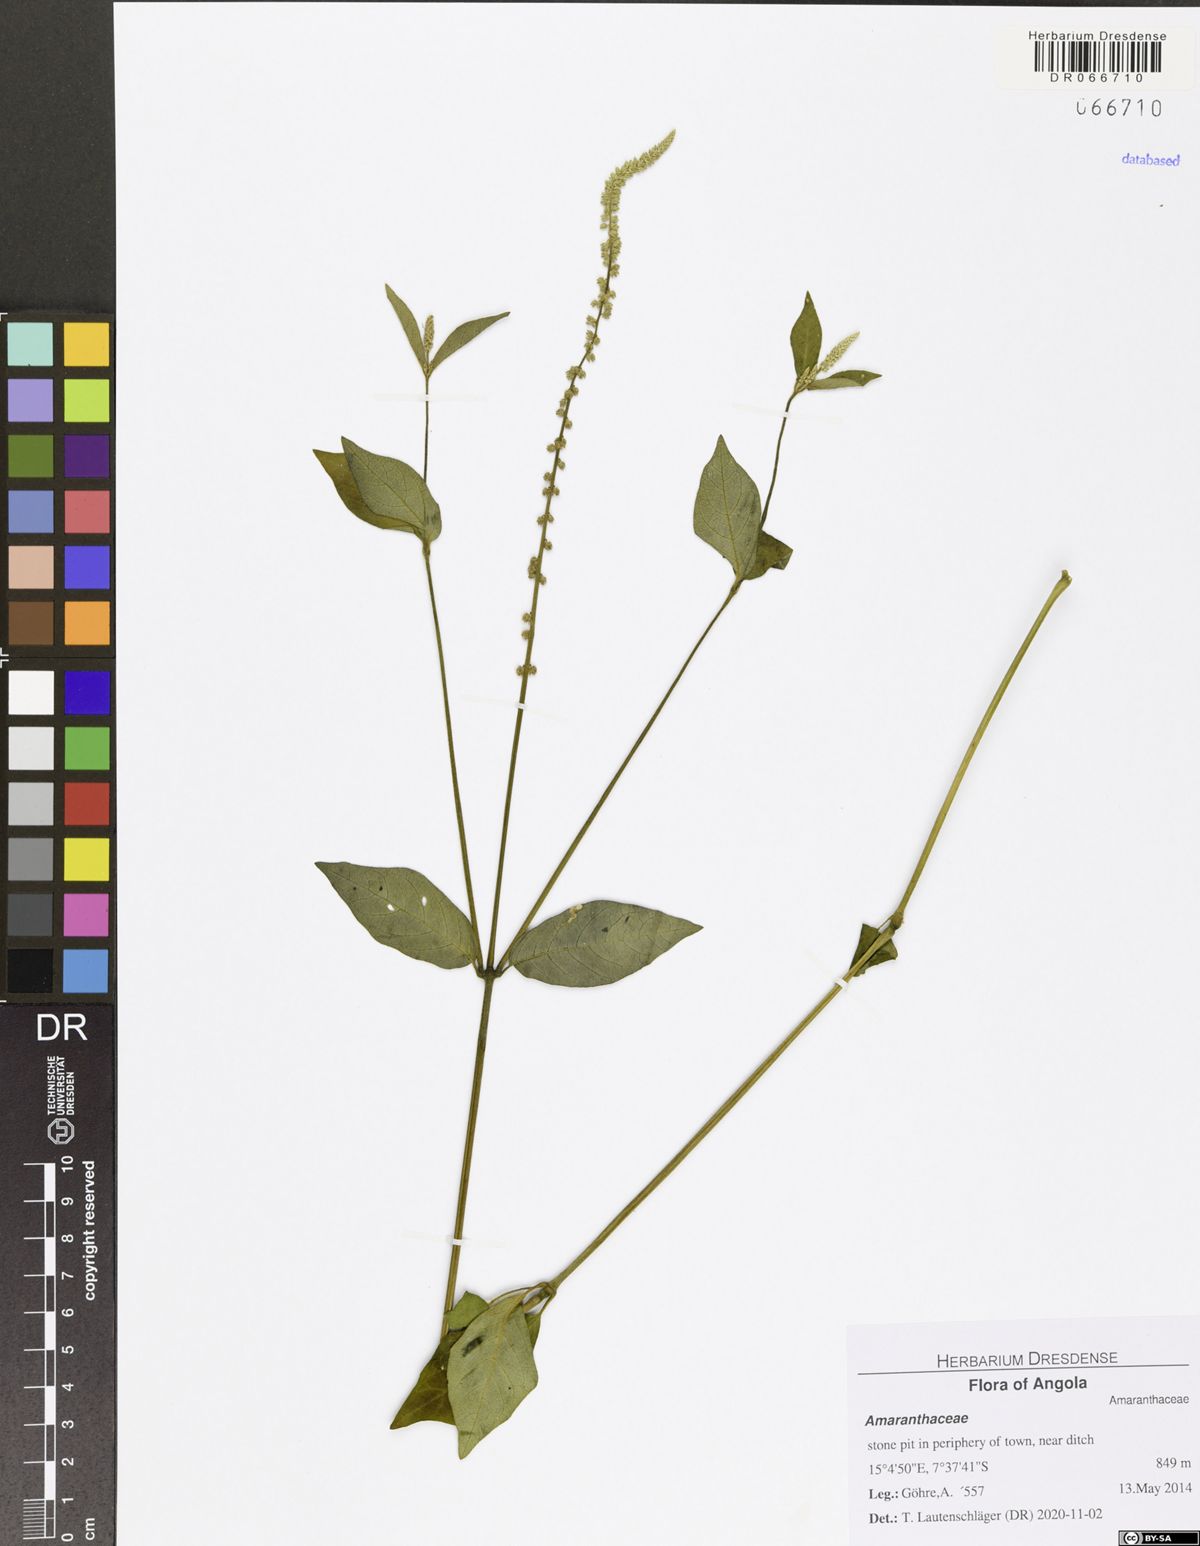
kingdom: Plantae
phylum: Tracheophyta
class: Magnoliopsida
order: Caryophyllales
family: Amaranthaceae
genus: Cyathula
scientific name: Cyathula prostrata
